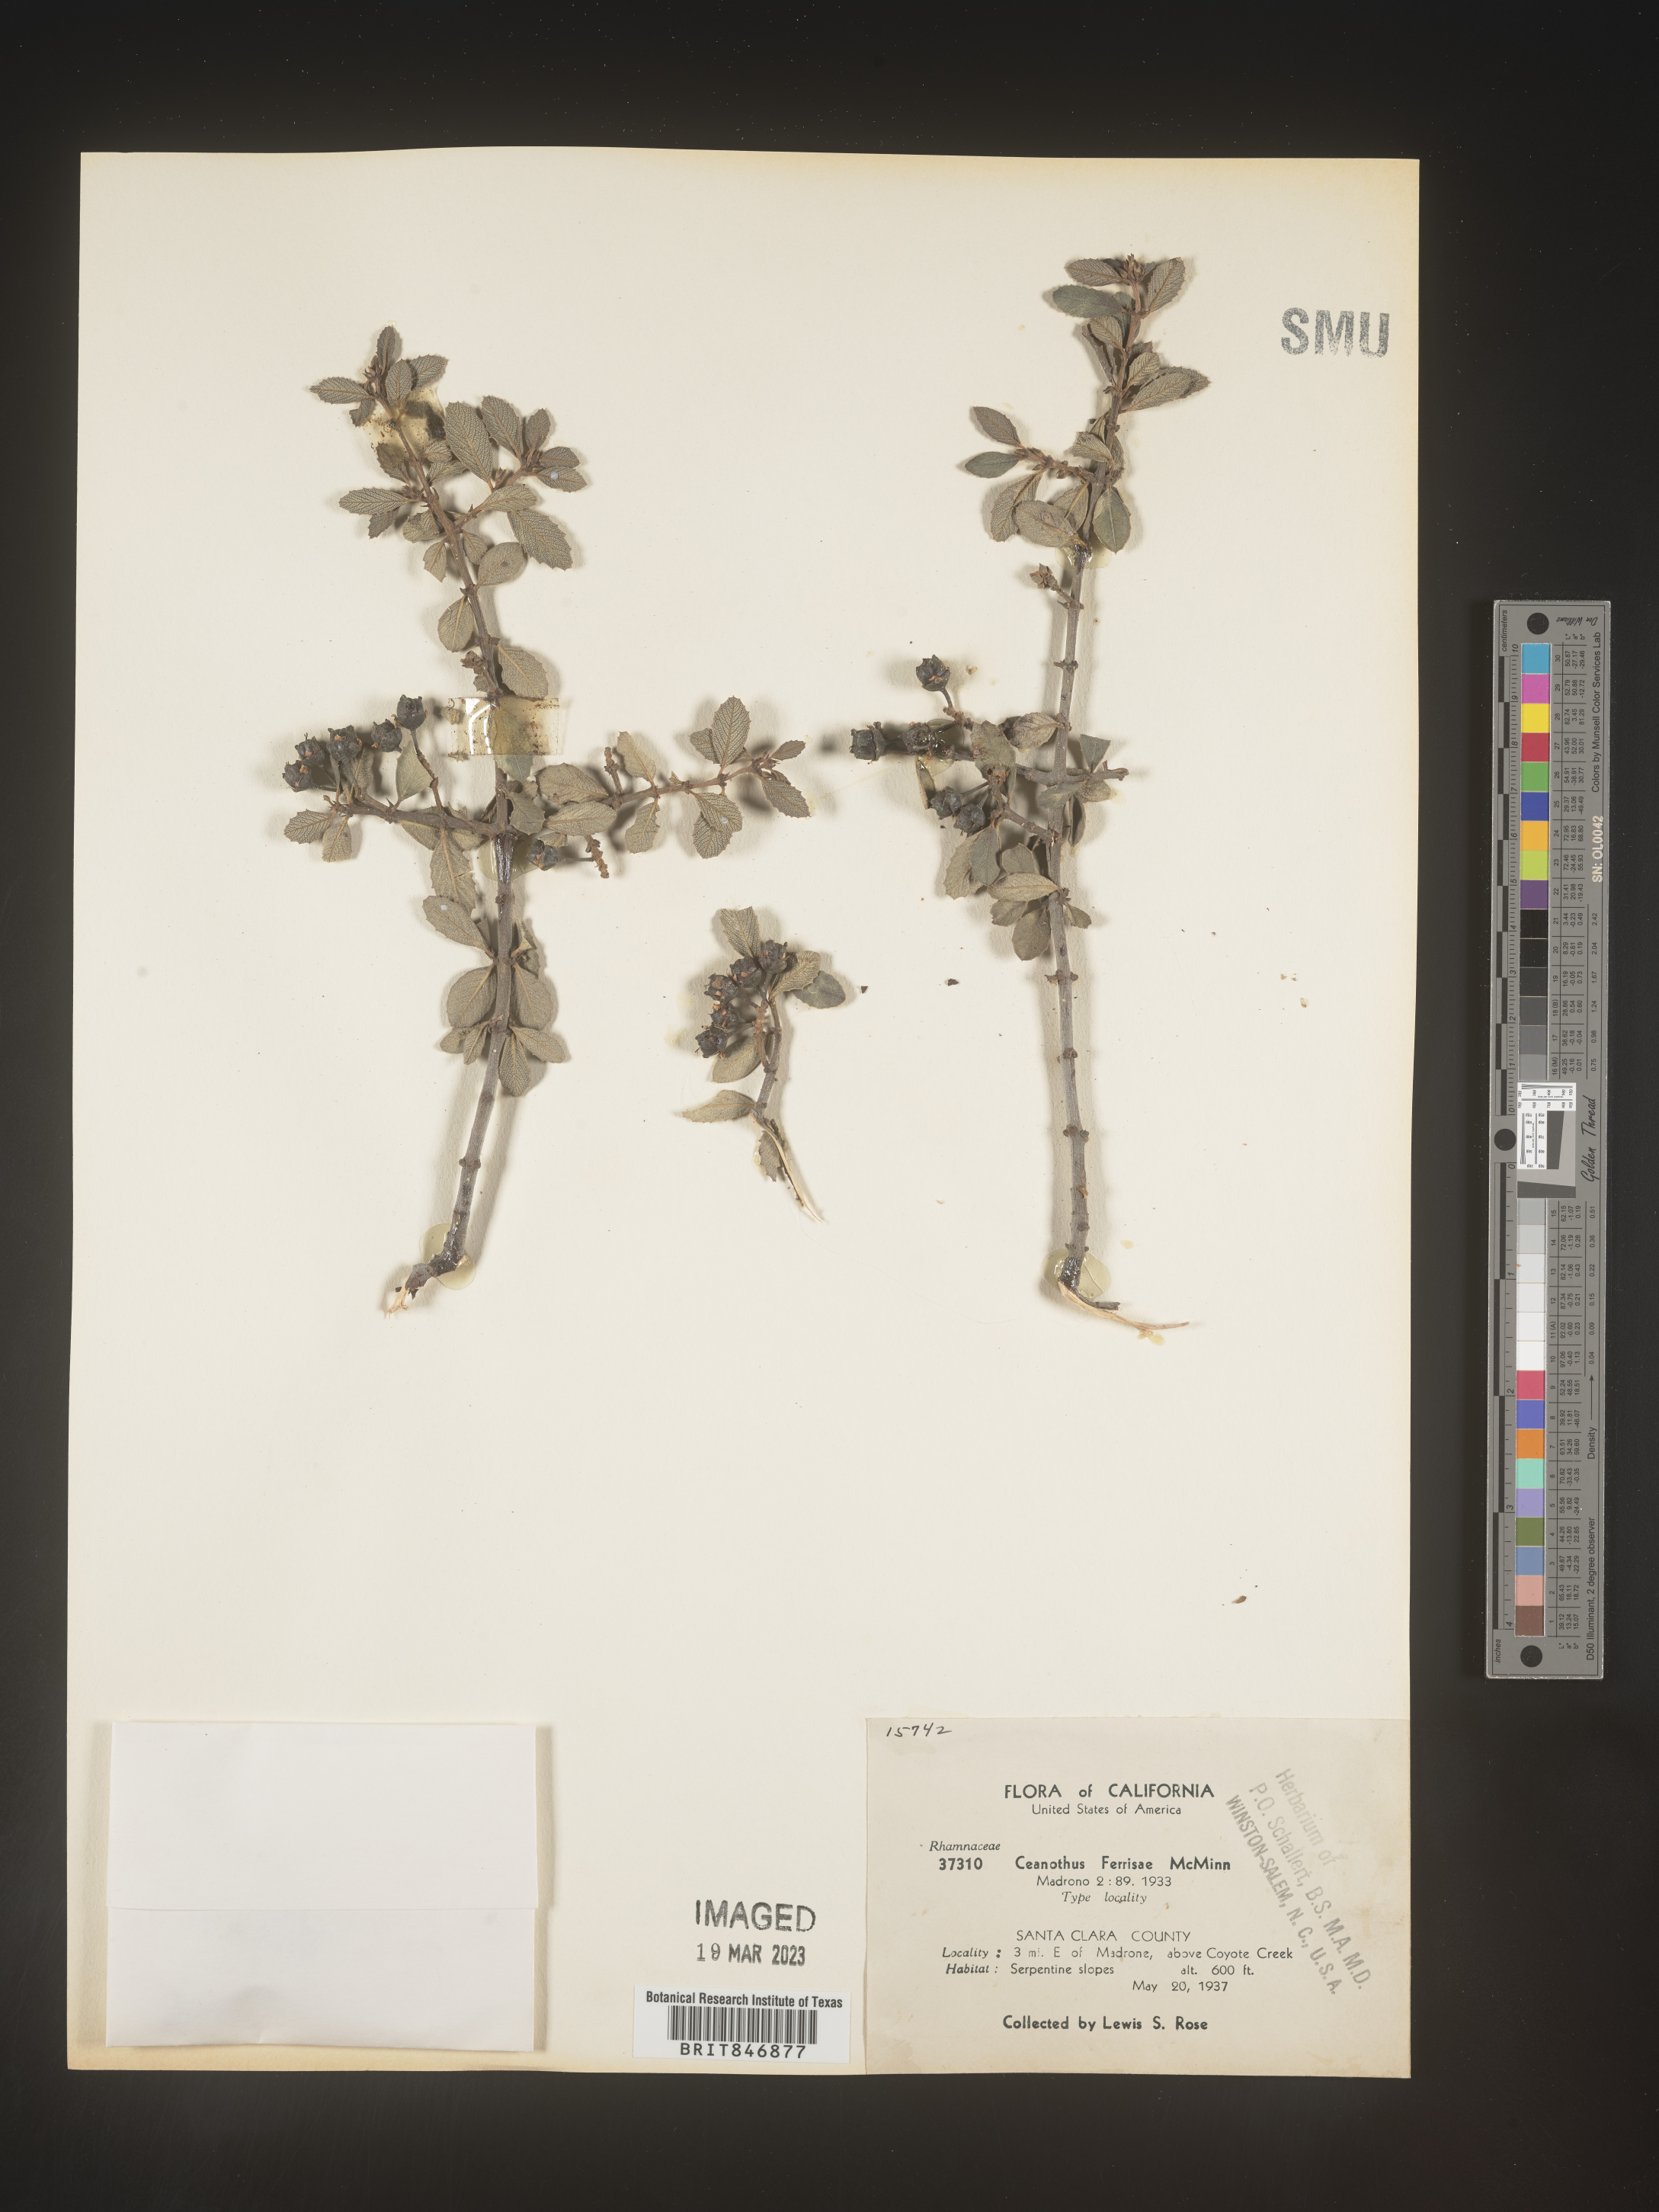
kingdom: Plantae
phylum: Tracheophyta
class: Magnoliopsida
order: Rosales
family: Rhamnaceae
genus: Ceanothus
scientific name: Ceanothus
